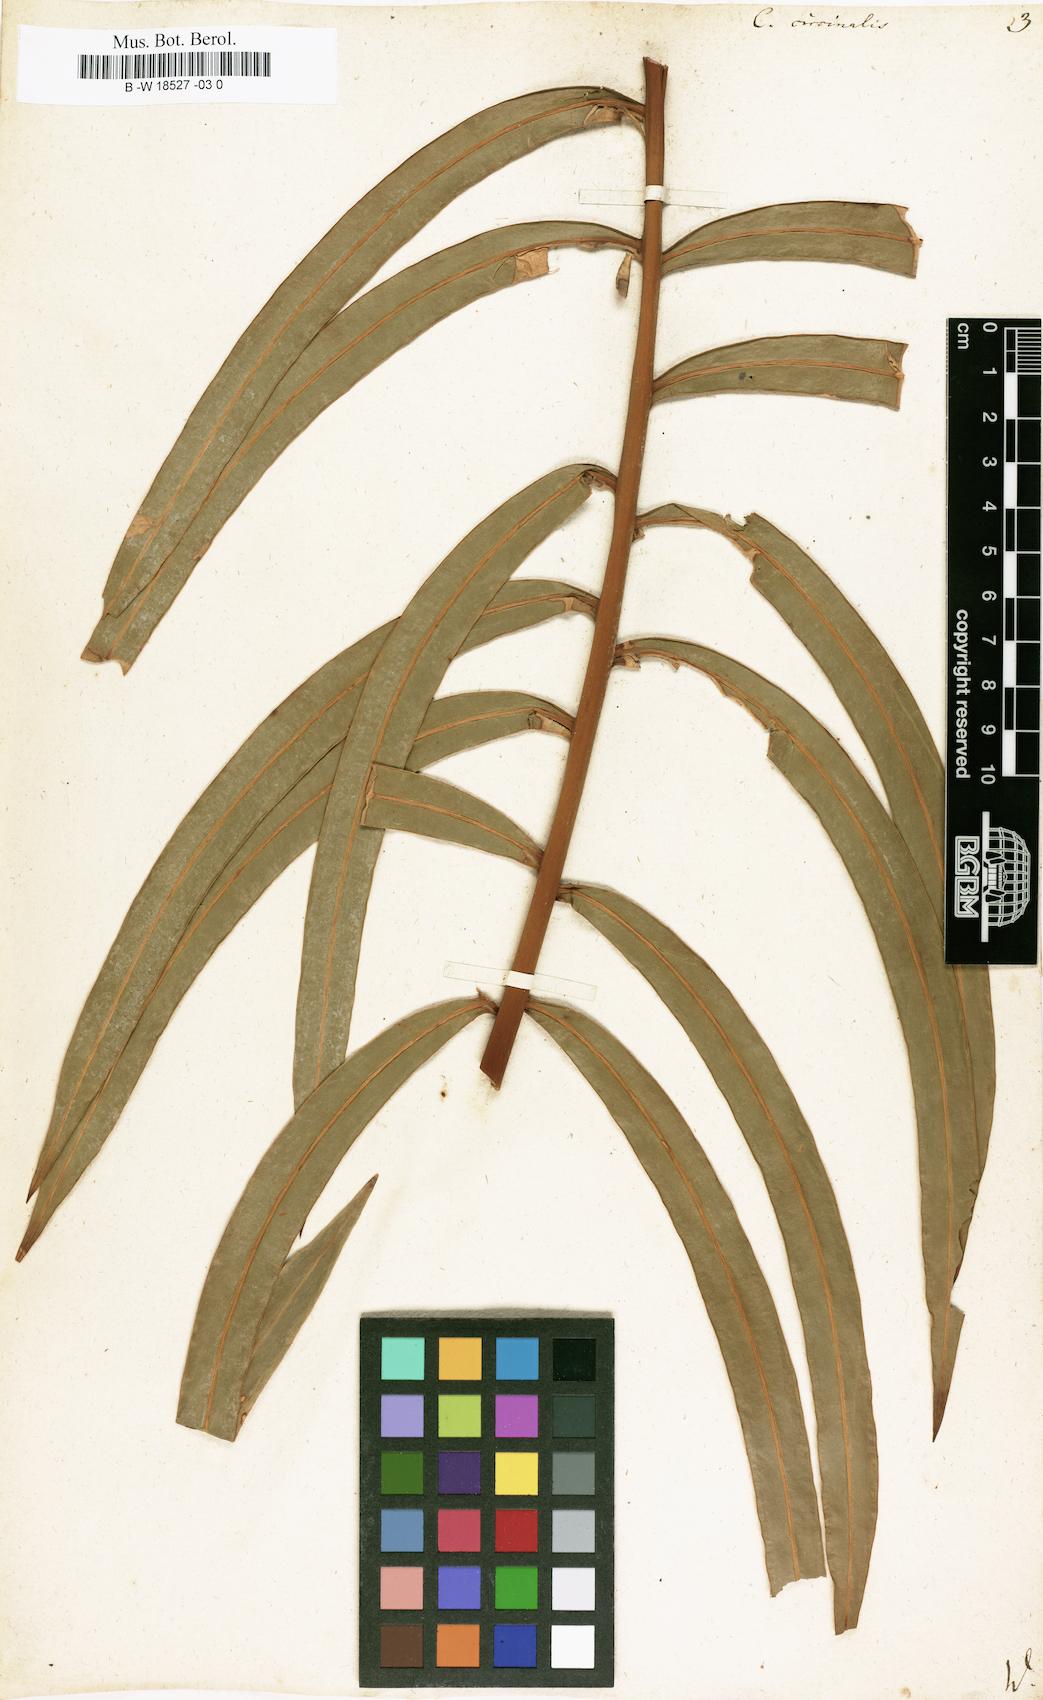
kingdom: Plantae
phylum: Tracheophyta
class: Cycadopsida
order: Cycadales
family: Cycadaceae
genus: Cycas
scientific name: Cycas circinalis
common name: Queen sago
